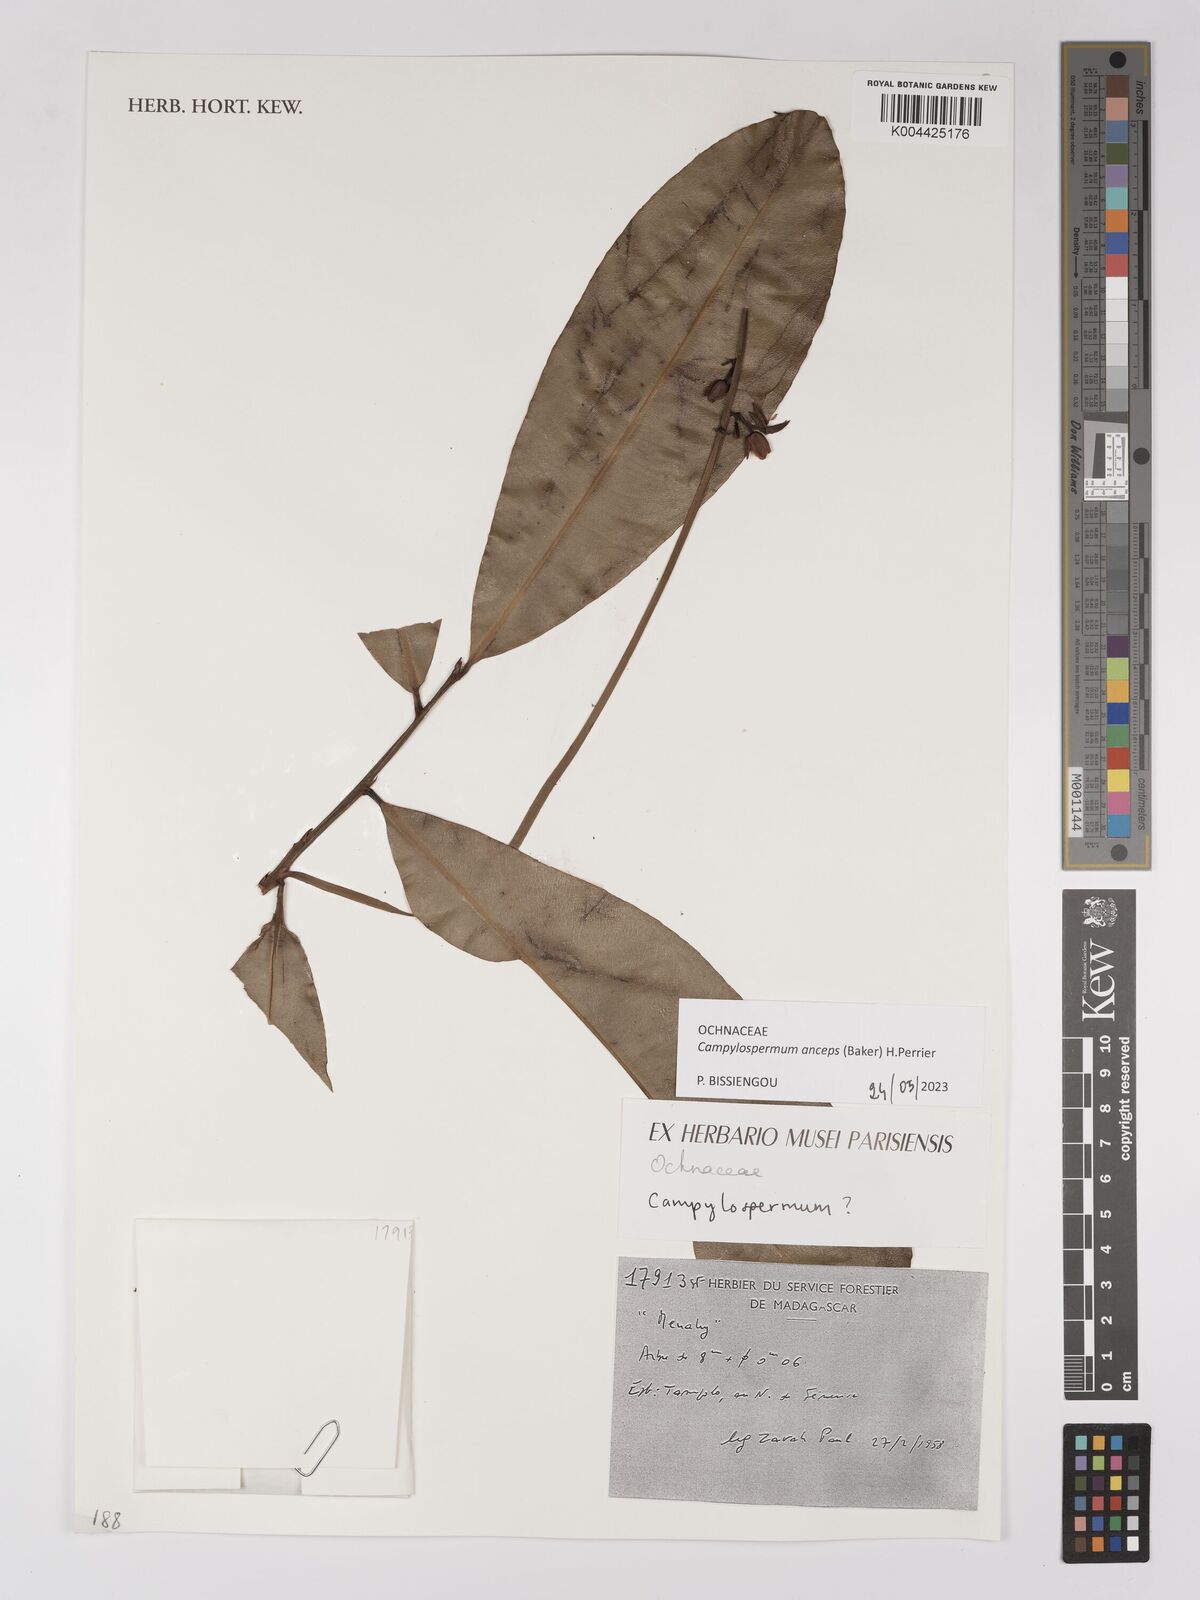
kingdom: Plantae
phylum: Tracheophyta
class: Magnoliopsida
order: Malpighiales
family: Ochnaceae
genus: Campylospermum
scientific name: Campylospermum
